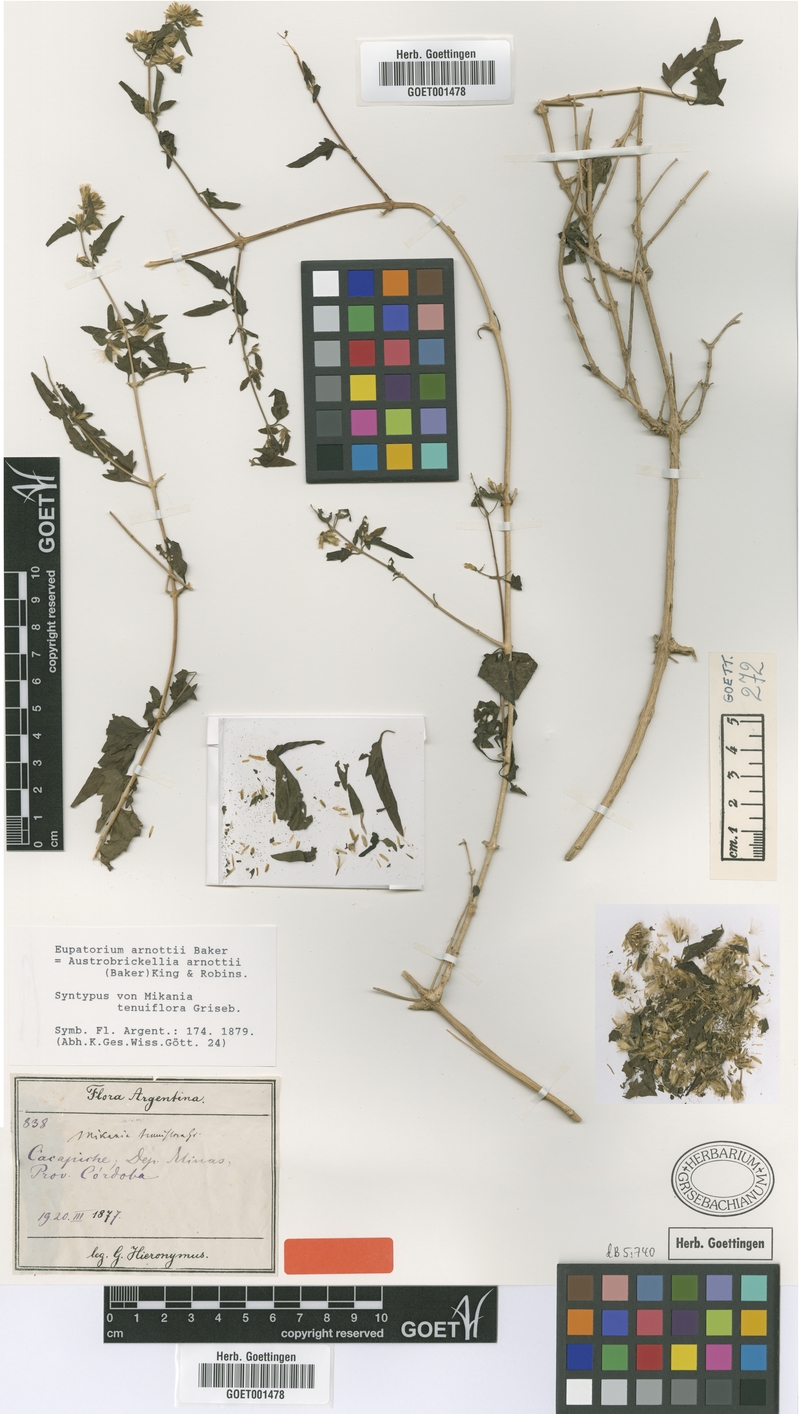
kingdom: Plantae
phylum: Tracheophyta
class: Magnoliopsida
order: Asterales
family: Asteraceae
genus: Austrobrickellia
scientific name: Austrobrickellia arnottii
